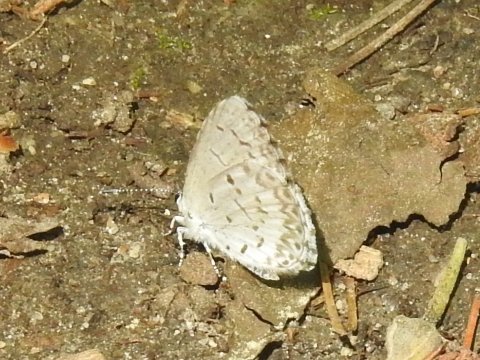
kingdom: Animalia
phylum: Arthropoda
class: Insecta
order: Lepidoptera
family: Lycaenidae
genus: Celastrina
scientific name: Celastrina lucia
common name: Northern Spring Azure
